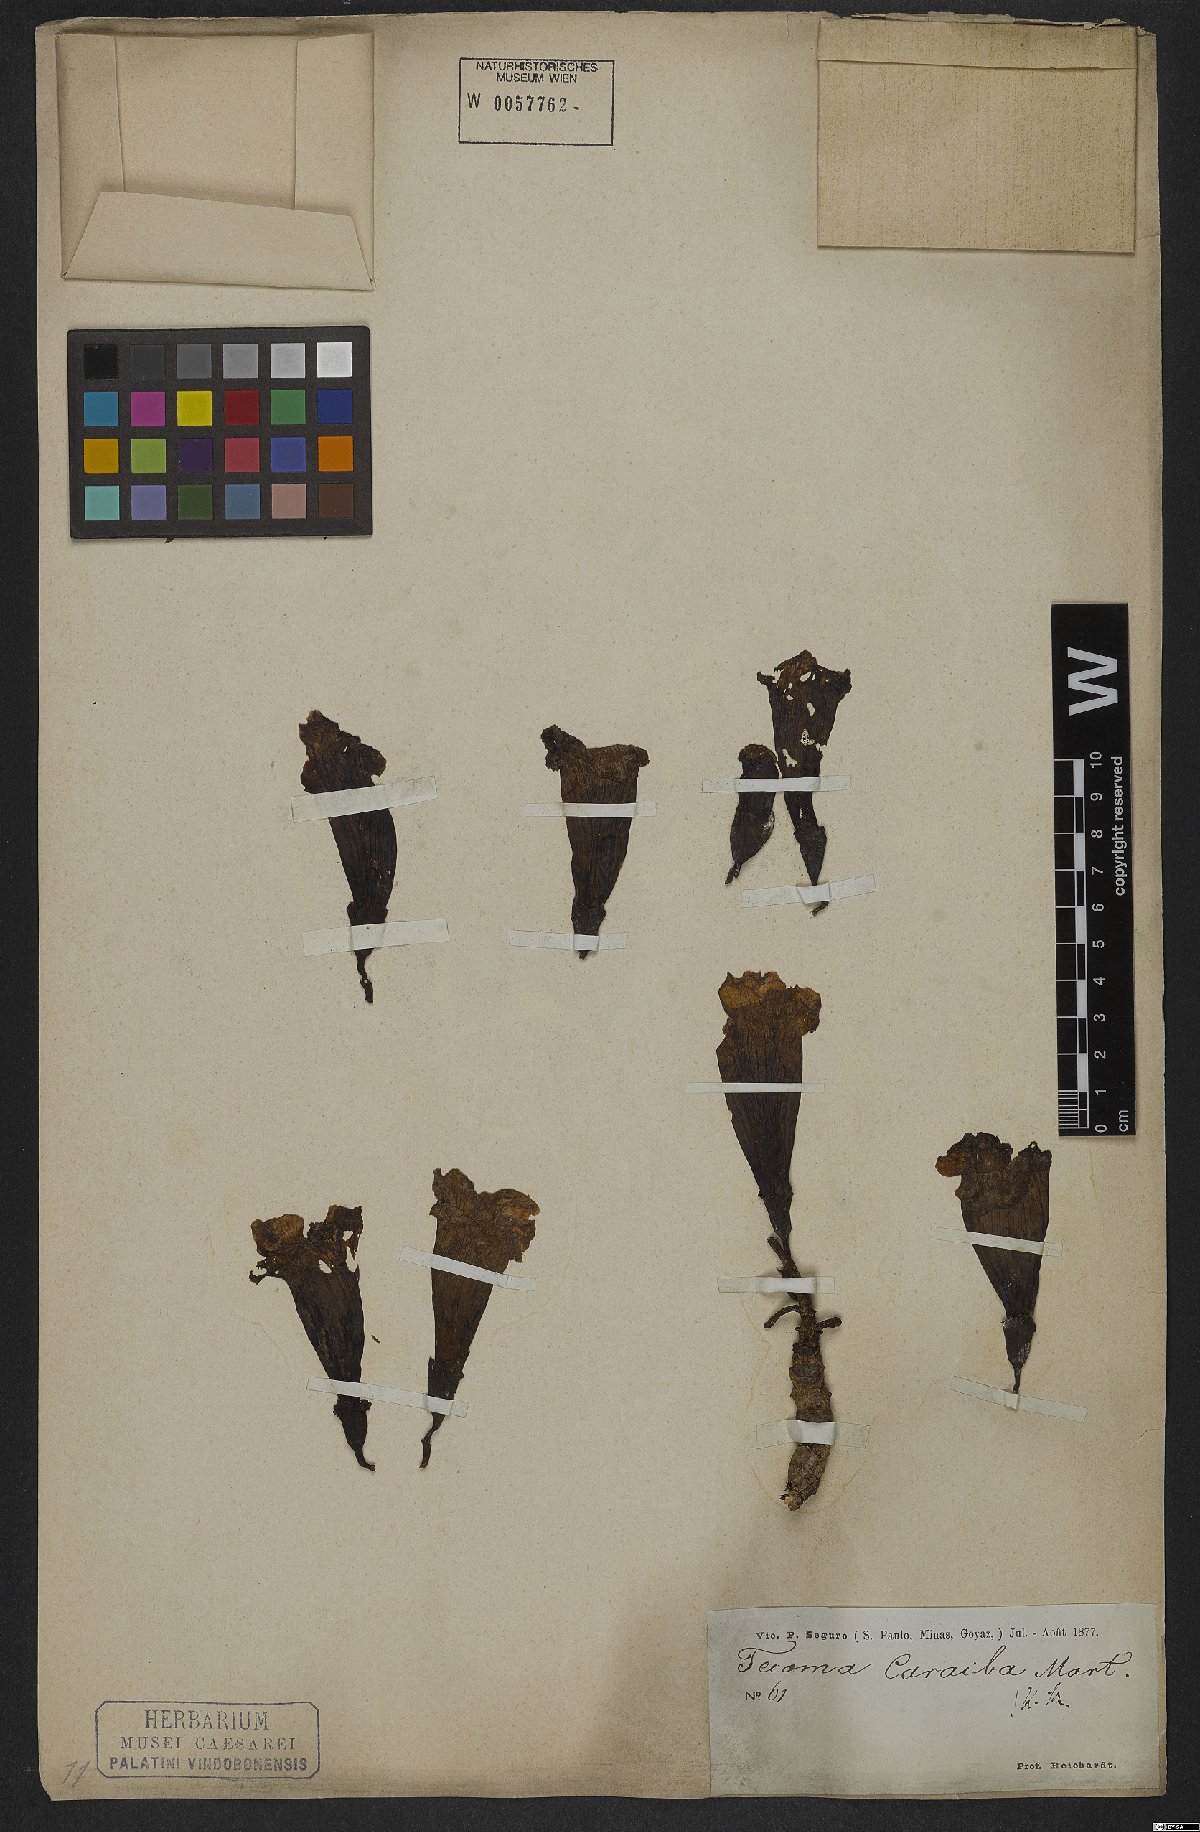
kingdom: Plantae
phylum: Tracheophyta
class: Magnoliopsida
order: Lamiales
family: Bignoniaceae
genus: Tabebuia
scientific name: Tabebuia aurea
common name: Caribbean trumpet-tree
